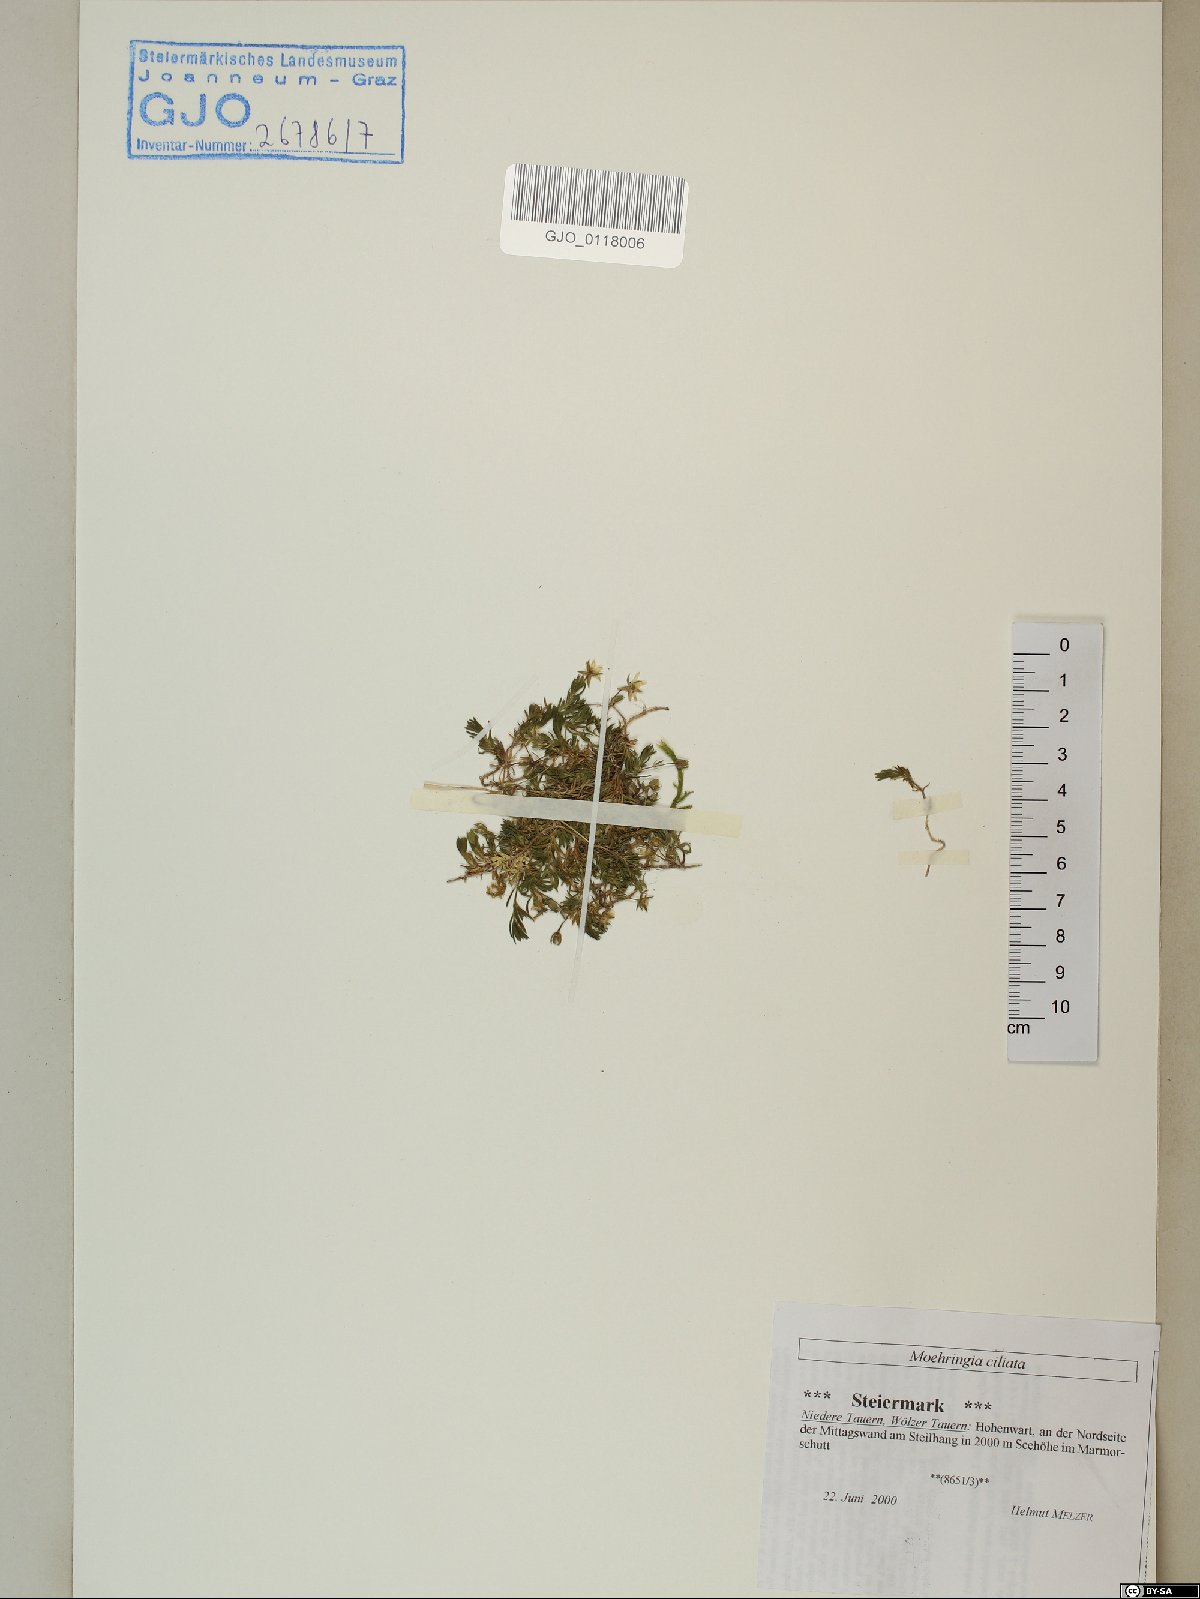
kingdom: Plantae
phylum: Tracheophyta
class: Magnoliopsida
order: Caryophyllales
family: Caryophyllaceae
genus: Moehringia
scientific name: Moehringia ciliata
